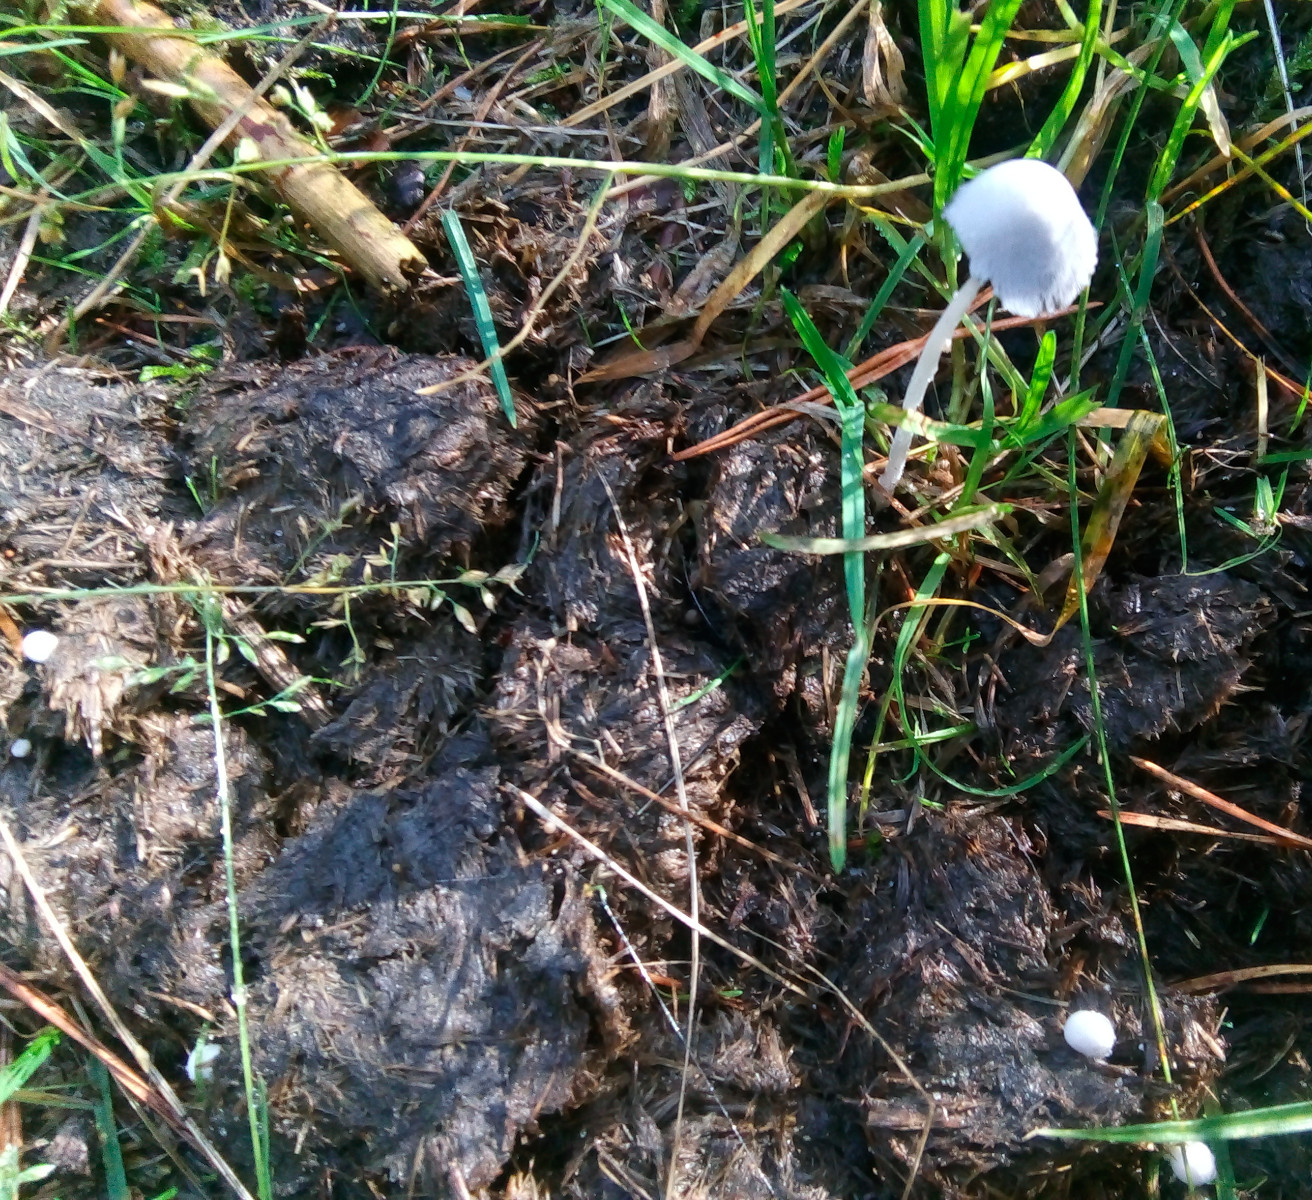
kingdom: Fungi
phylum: Basidiomycota
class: Agaricomycetes
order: Agaricales
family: Psathyrellaceae
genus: Coprinopsis
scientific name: Coprinopsis nivea
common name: snehvid blækhat
